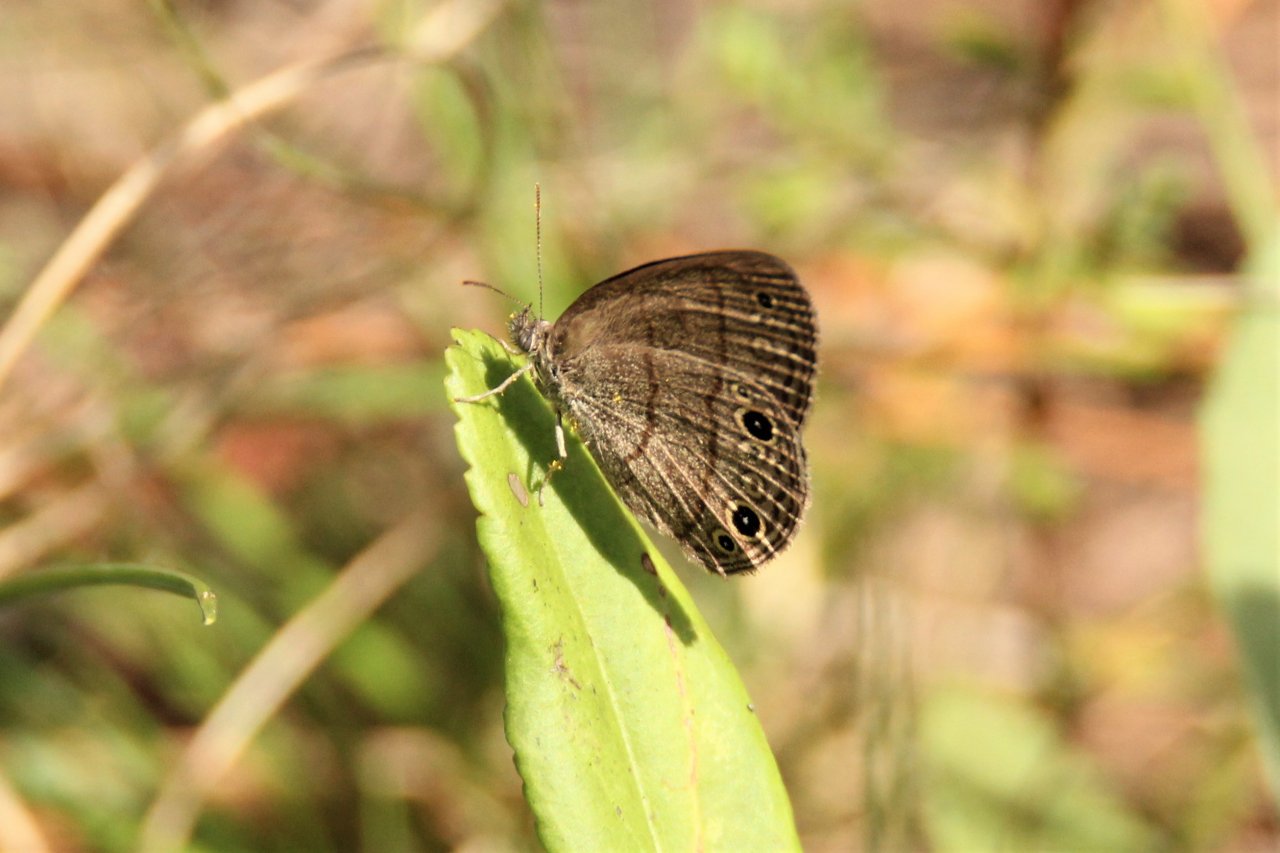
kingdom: Animalia
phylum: Arthropoda
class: Insecta
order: Lepidoptera
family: Nymphalidae
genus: Hermeuptychia
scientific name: Hermeuptychia hermes
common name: Carolina Satyr
